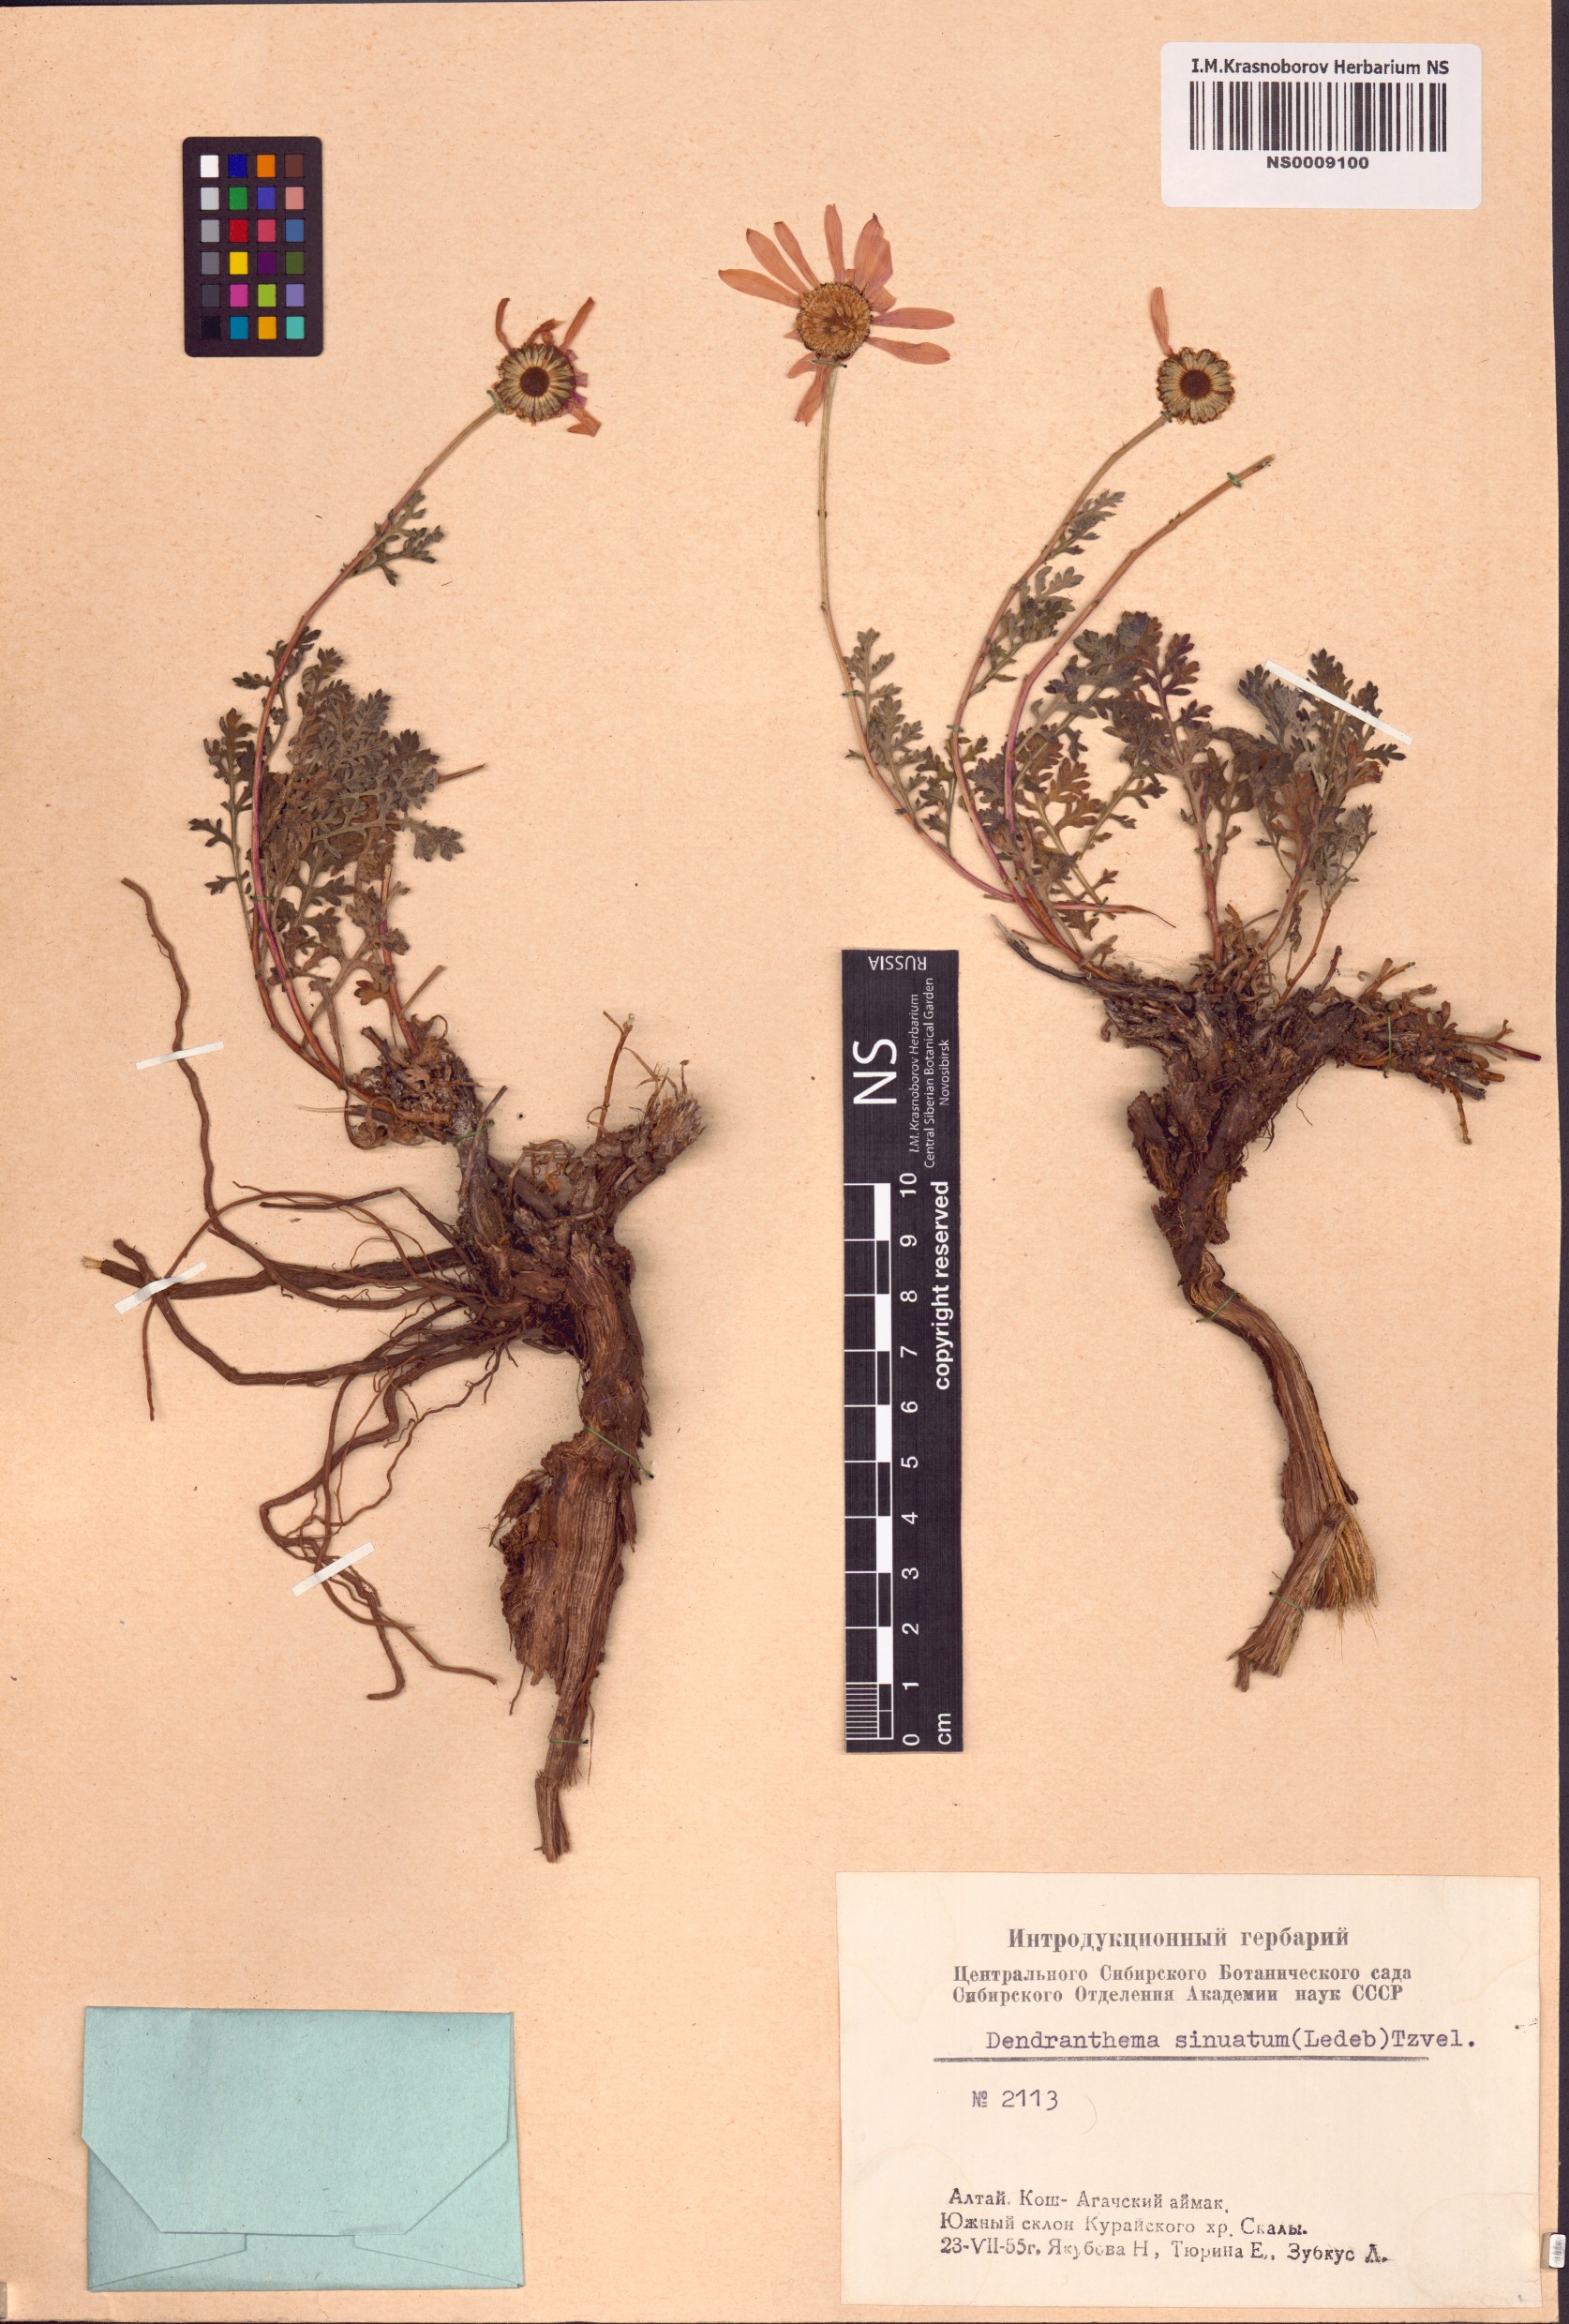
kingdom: Plantae
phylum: Tracheophyta
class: Magnoliopsida
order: Asterales
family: Asteraceae
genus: Chrysanthemum
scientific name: Chrysanthemum sinuatum
